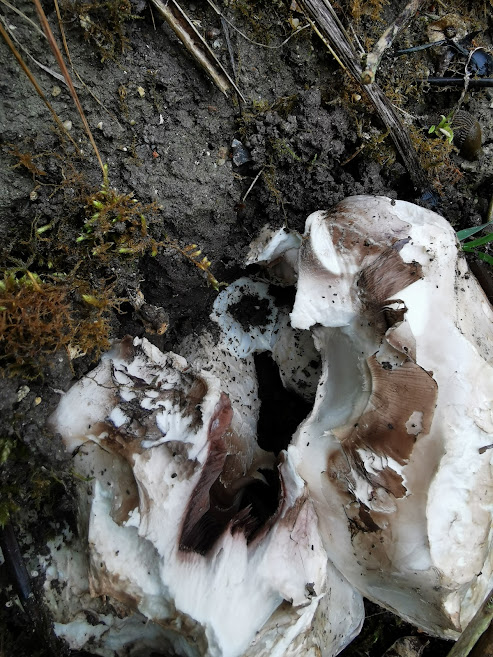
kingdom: Fungi
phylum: Basidiomycota
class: Agaricomycetes
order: Agaricales
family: Agaricaceae
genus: Agaricus
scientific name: Agaricus
